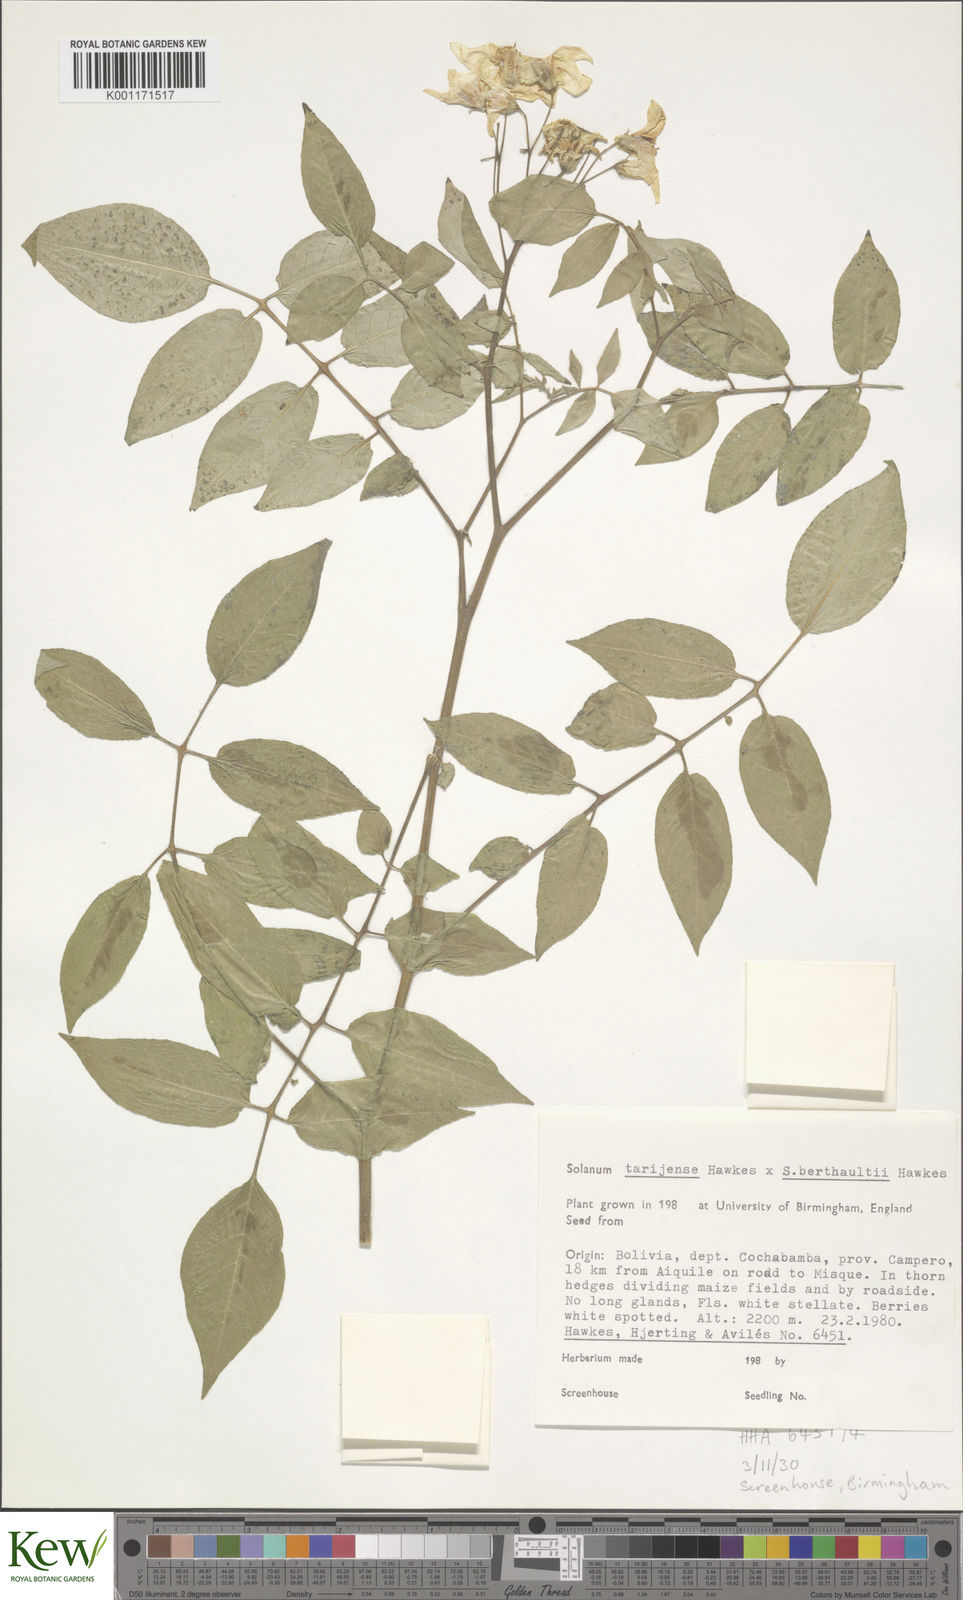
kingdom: Plantae
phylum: Tracheophyta
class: Magnoliopsida
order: Solanales
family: Solanaceae
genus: Solanum
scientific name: Solanum tarijense
